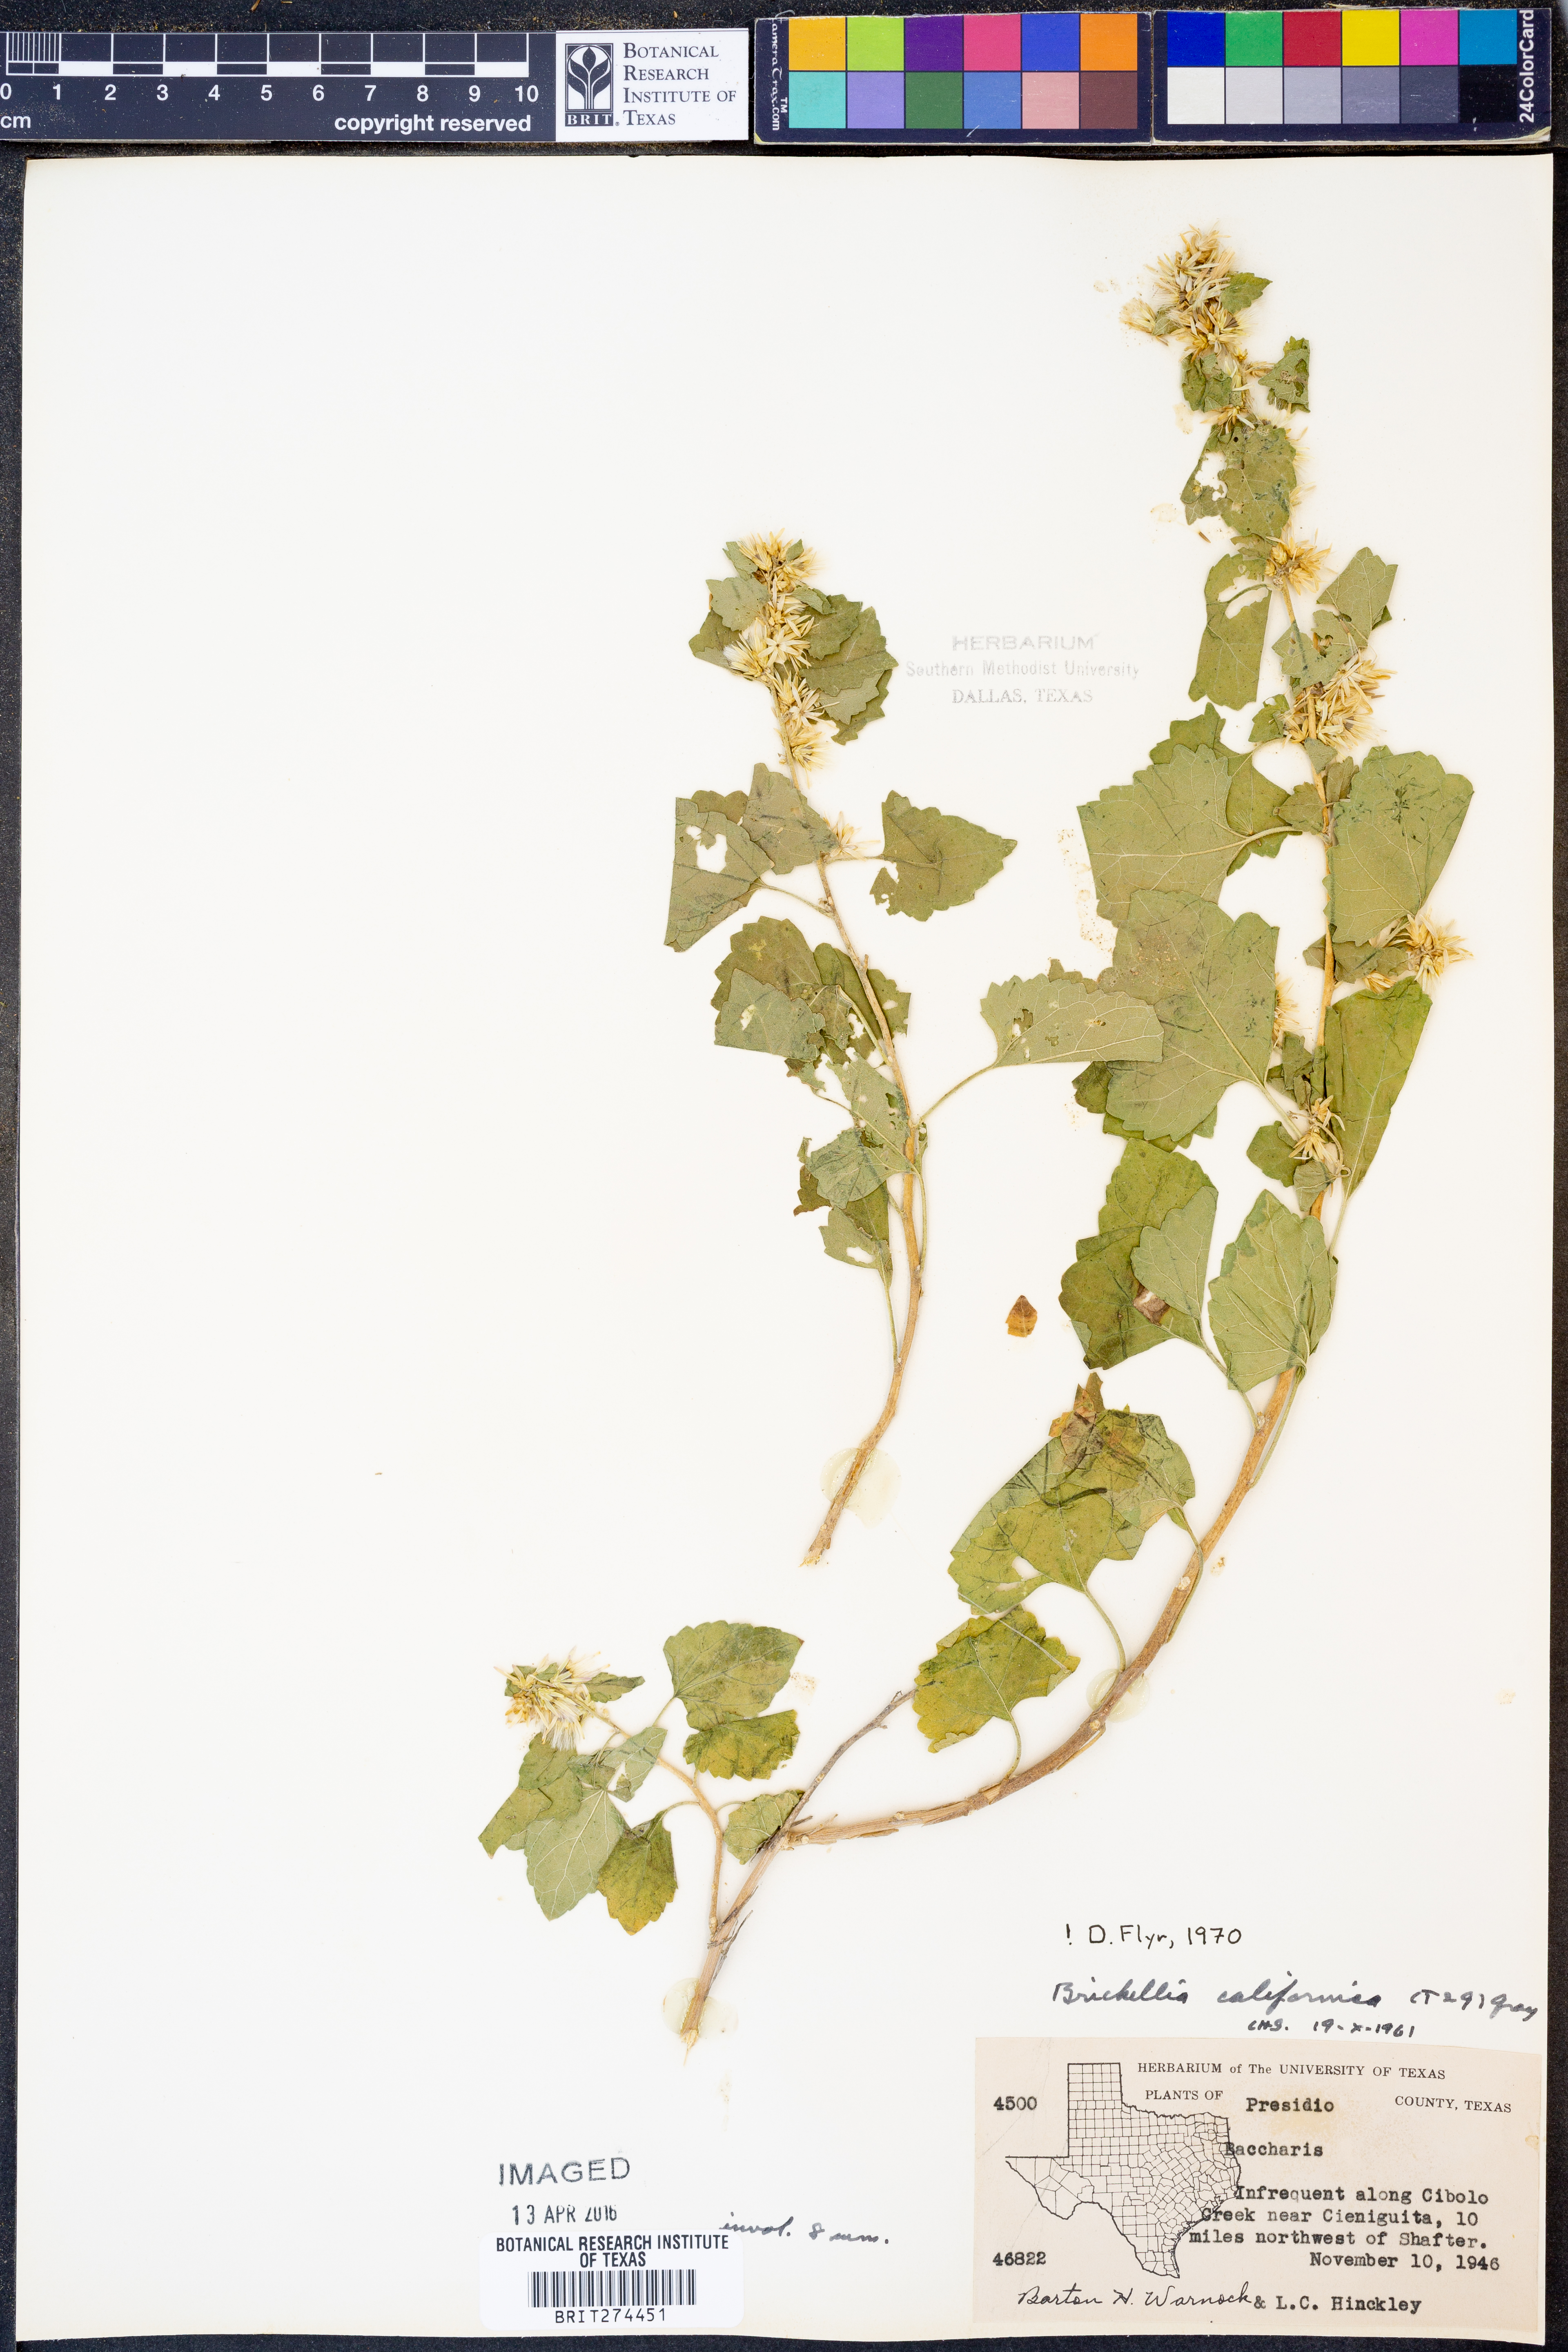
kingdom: Plantae
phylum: Tracheophyta
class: Magnoliopsida
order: Asterales
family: Asteraceae
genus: Brickellia
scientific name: Brickellia californica
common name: California brickellbush
